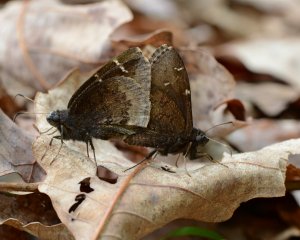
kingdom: Animalia
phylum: Arthropoda
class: Insecta
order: Lepidoptera
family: Hesperiidae
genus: Autochton
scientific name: Autochton
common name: Northern Cloudywing
